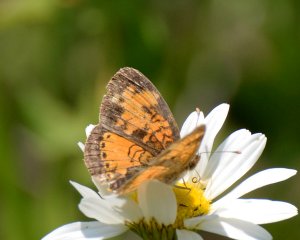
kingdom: Animalia
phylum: Arthropoda
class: Insecta
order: Lepidoptera
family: Nymphalidae
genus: Phyciodes
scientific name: Phyciodes tharos
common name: Northern Crescent
